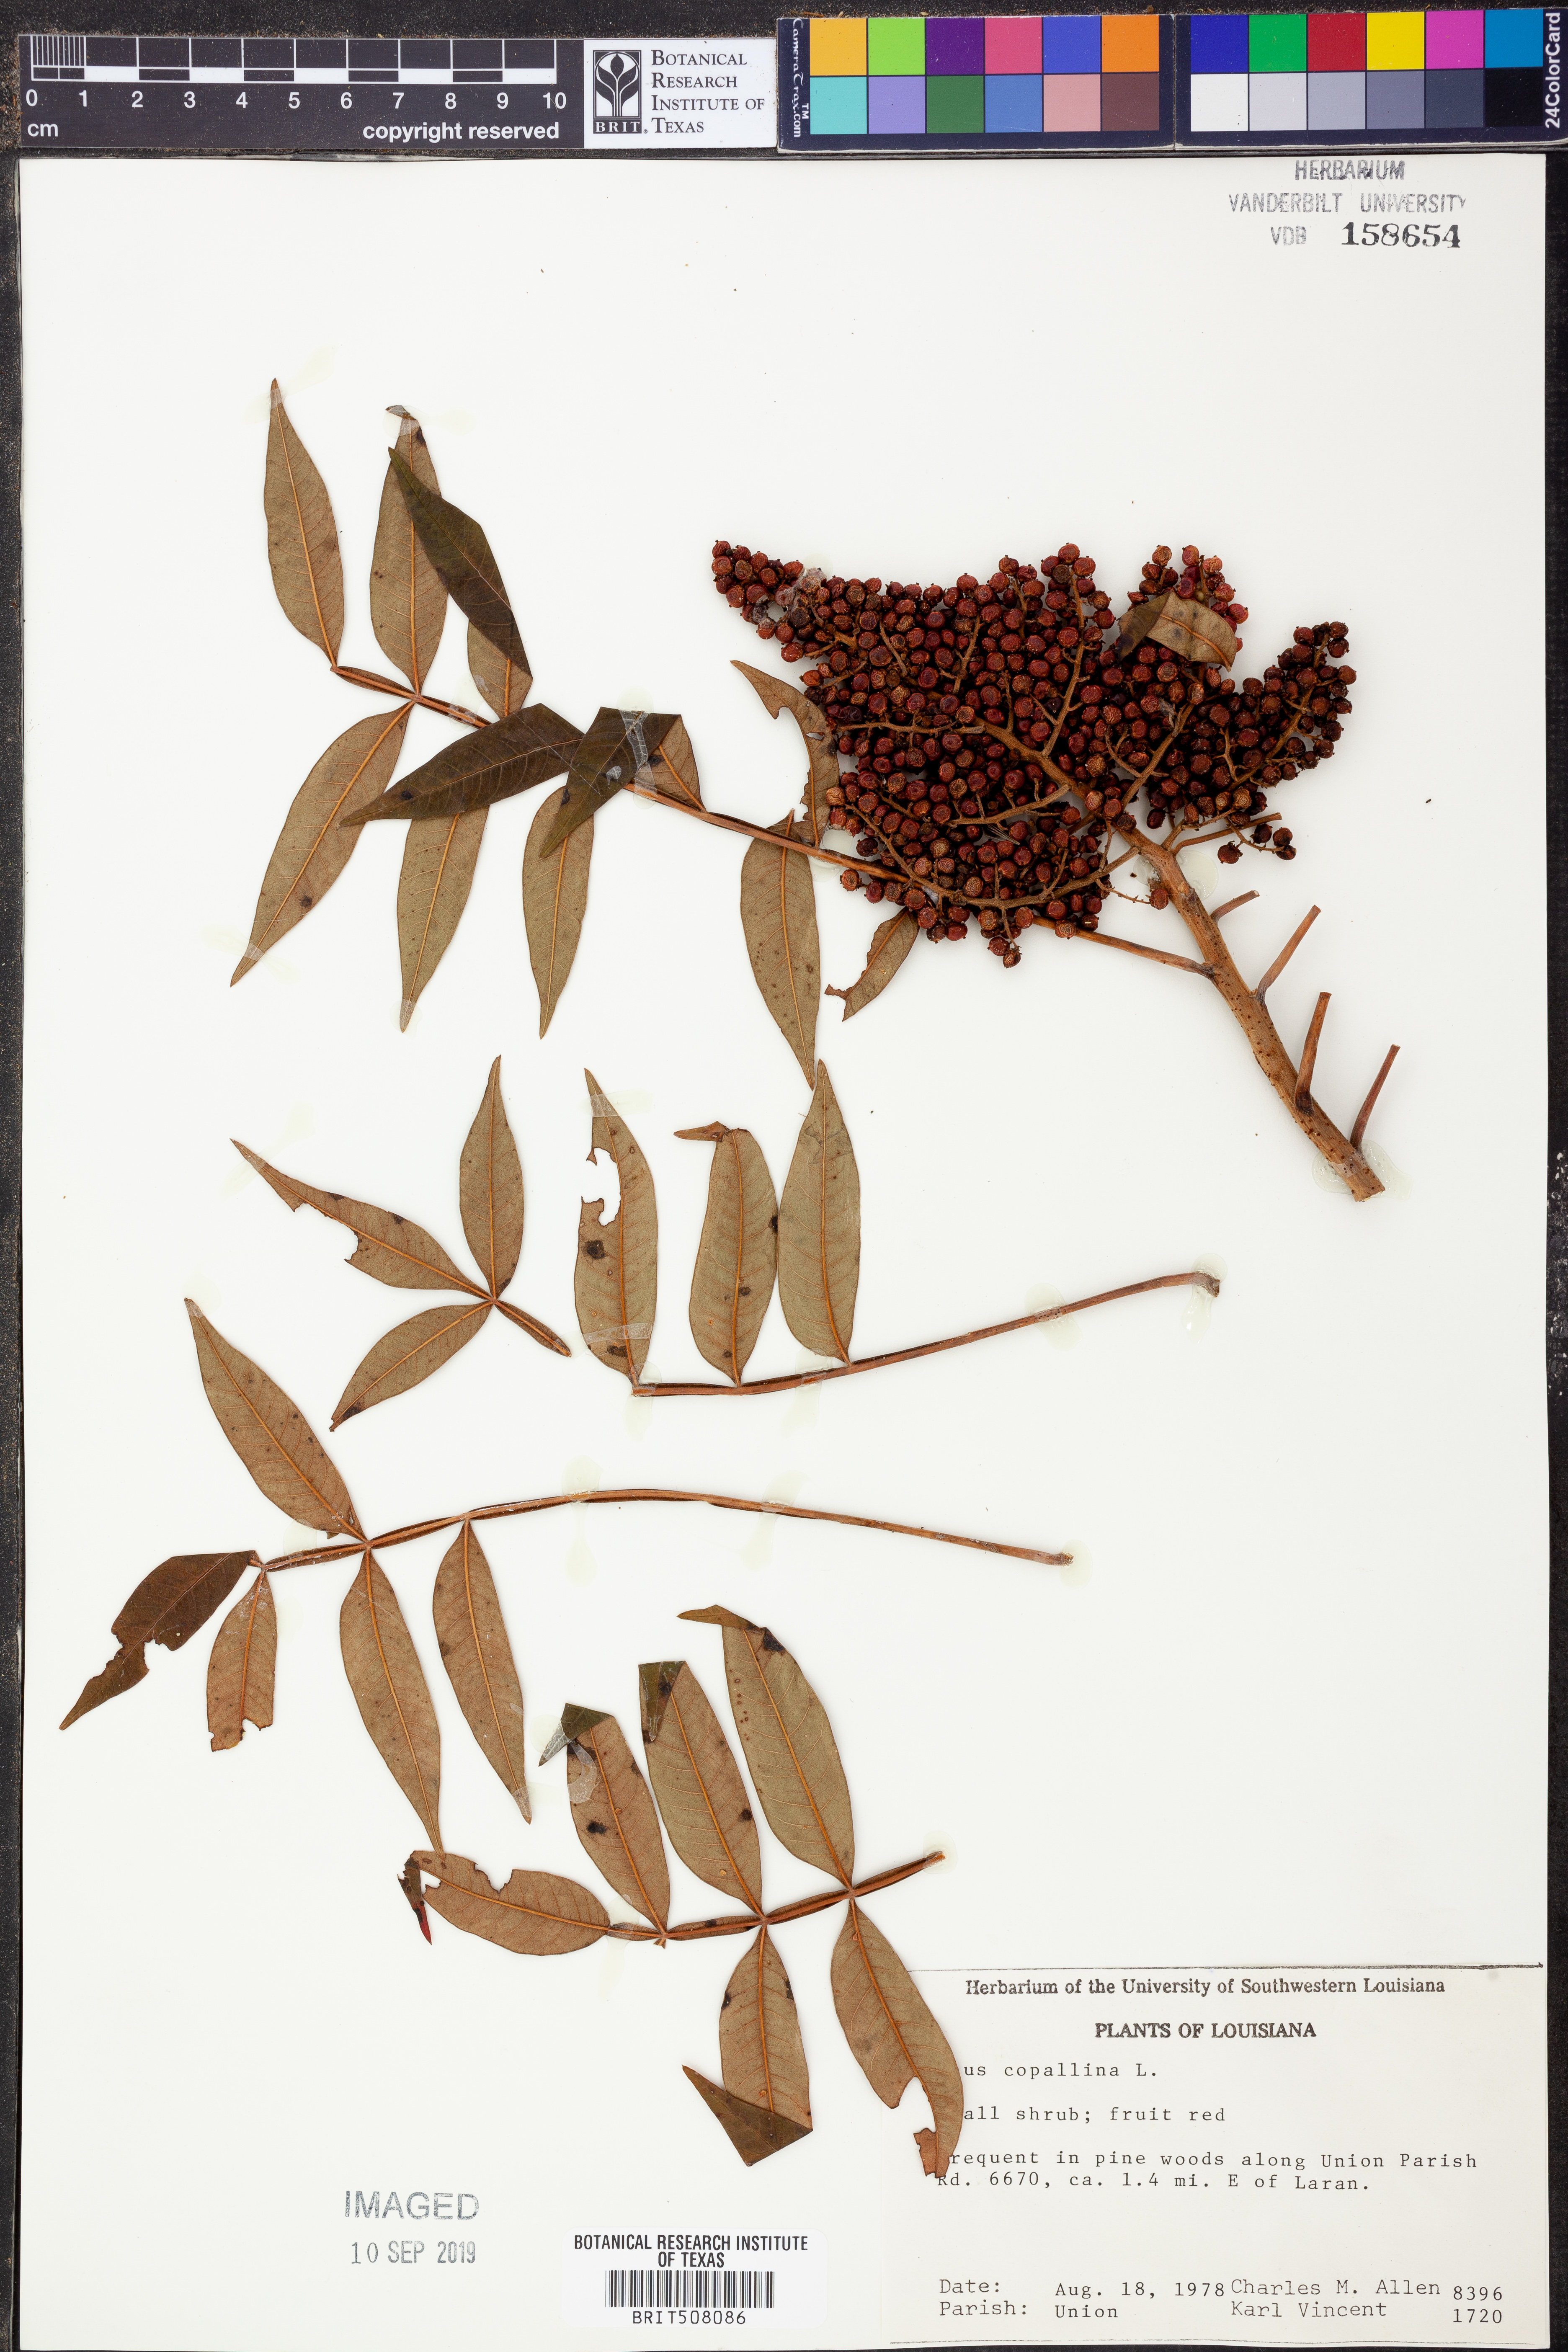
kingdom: Plantae
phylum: Tracheophyta
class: Magnoliopsida
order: Sapindales
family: Anacardiaceae
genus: Rhus
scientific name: Rhus copallina
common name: Shining sumac
